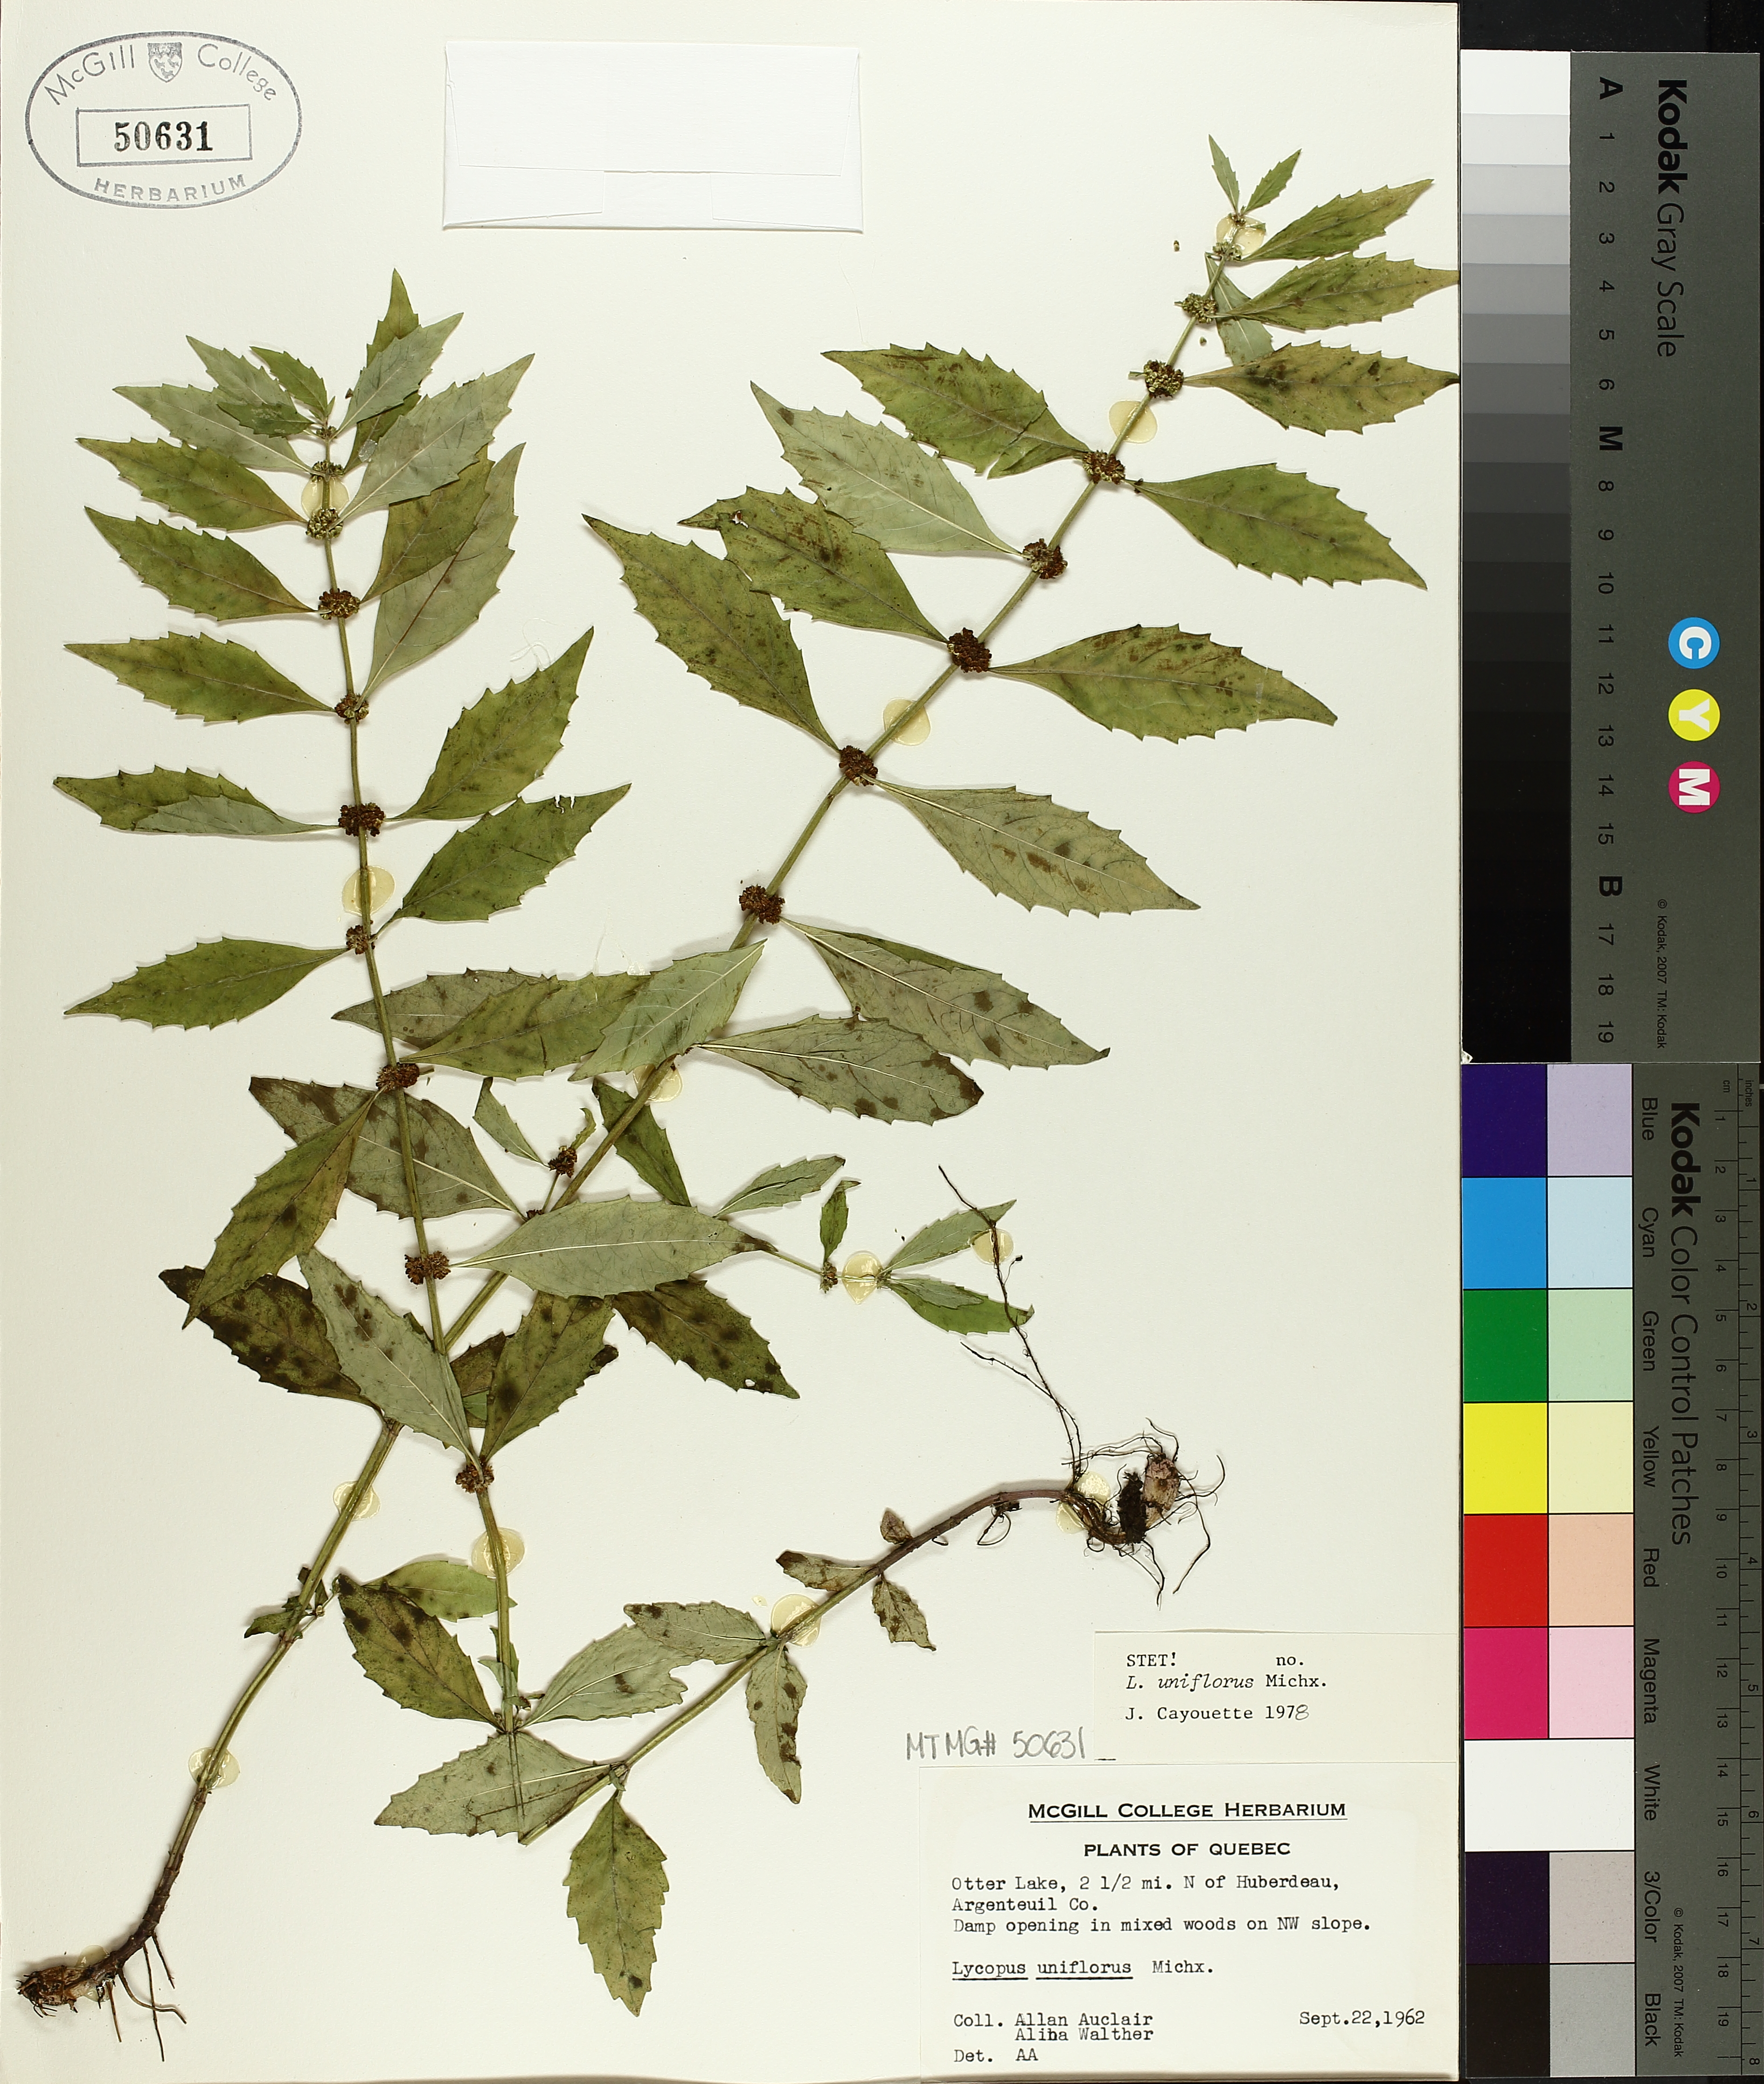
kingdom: Plantae
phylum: Tracheophyta
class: Magnoliopsida
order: Lamiales
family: Lamiaceae
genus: Lycopus
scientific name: Lycopus uniflorus
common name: Northern bugleweed
